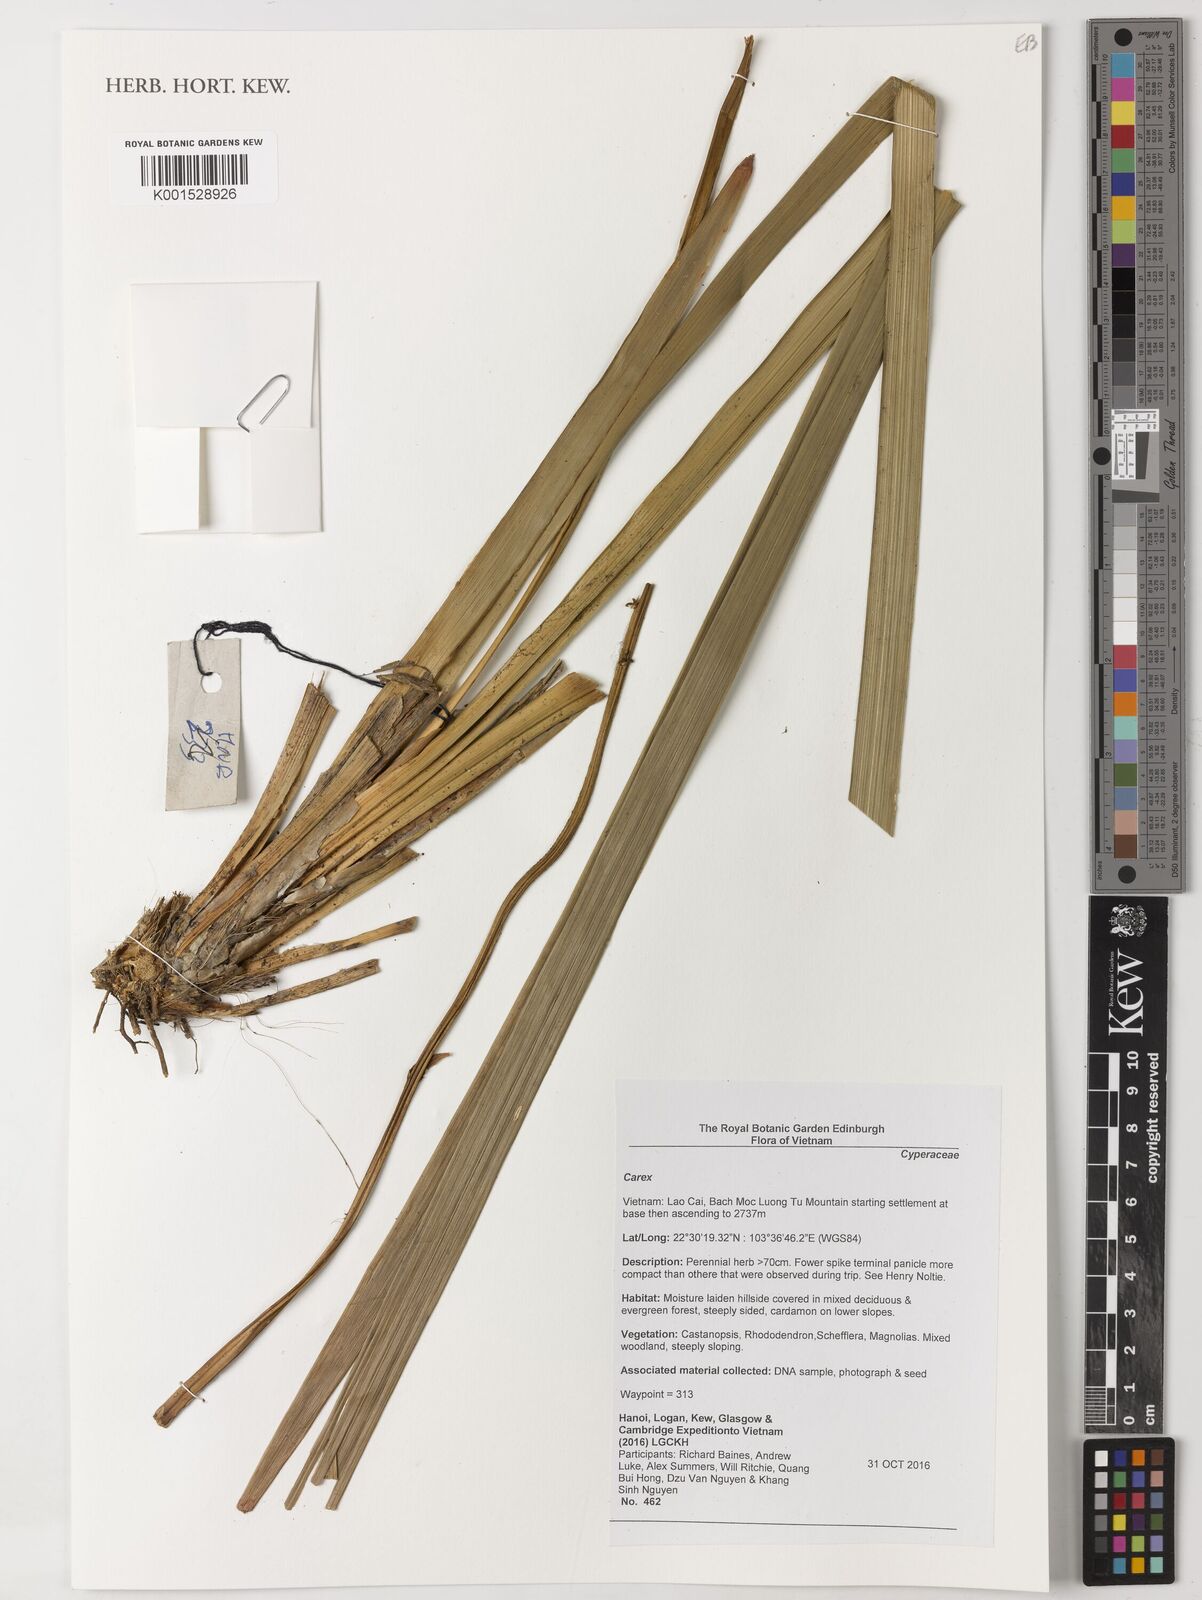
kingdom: Plantae
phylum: Tracheophyta
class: Liliopsida
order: Poales
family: Cyperaceae
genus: Carex
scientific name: Carex
